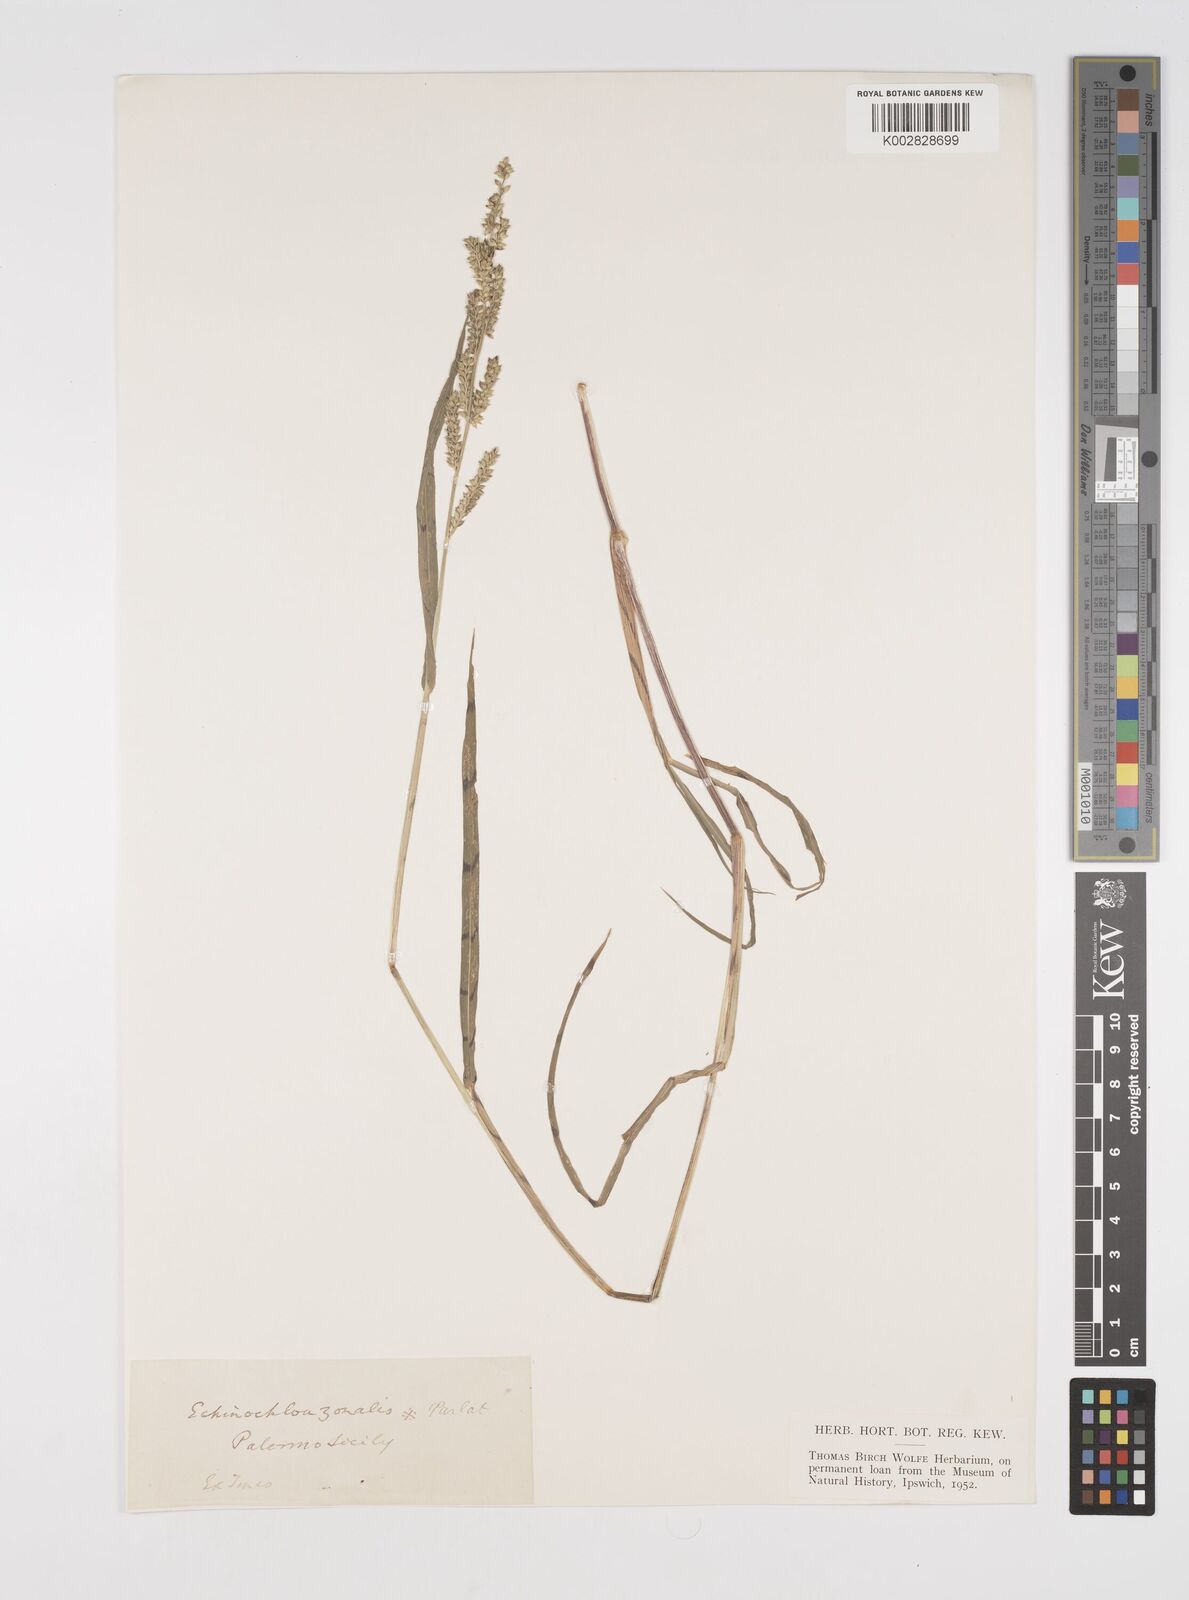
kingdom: Plantae
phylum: Tracheophyta
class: Liliopsida
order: Poales
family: Poaceae
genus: Echinochloa
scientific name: Echinochloa colonum
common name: Jungle rice
